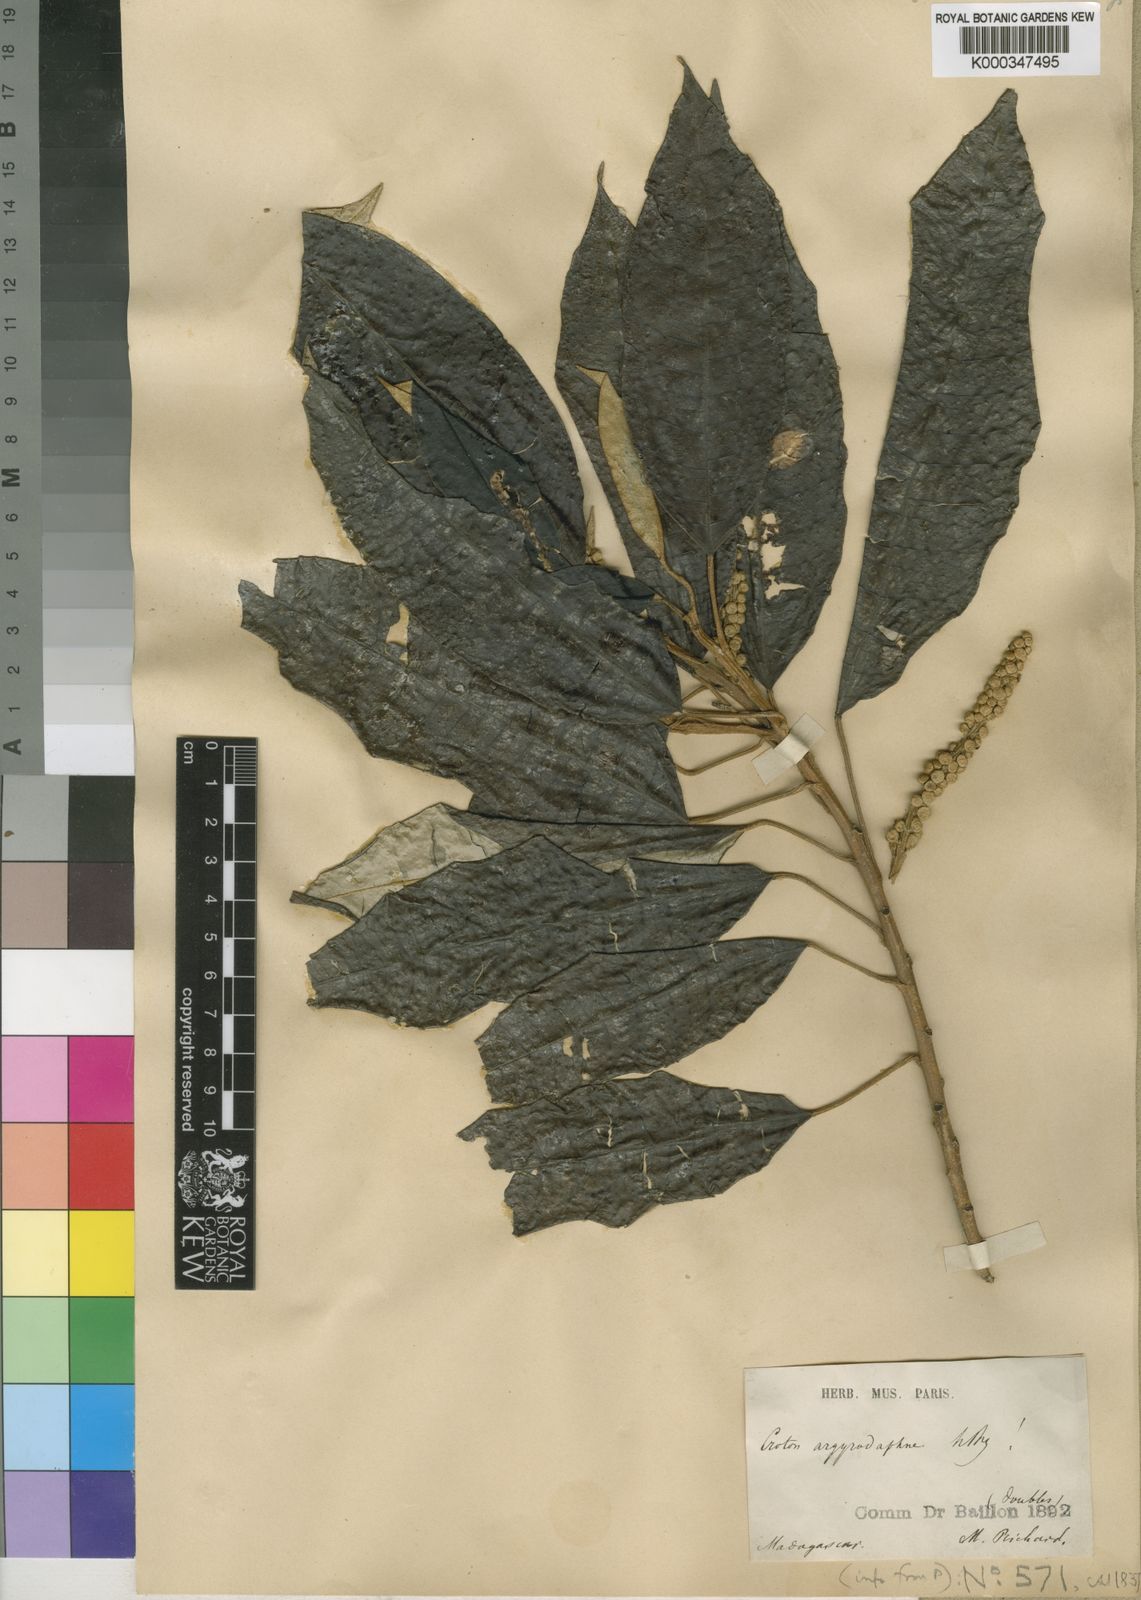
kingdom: Plantae
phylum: Tracheophyta
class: Magnoliopsida
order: Malpighiales
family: Euphorbiaceae
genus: Croton
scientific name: Croton argyrodaphne
